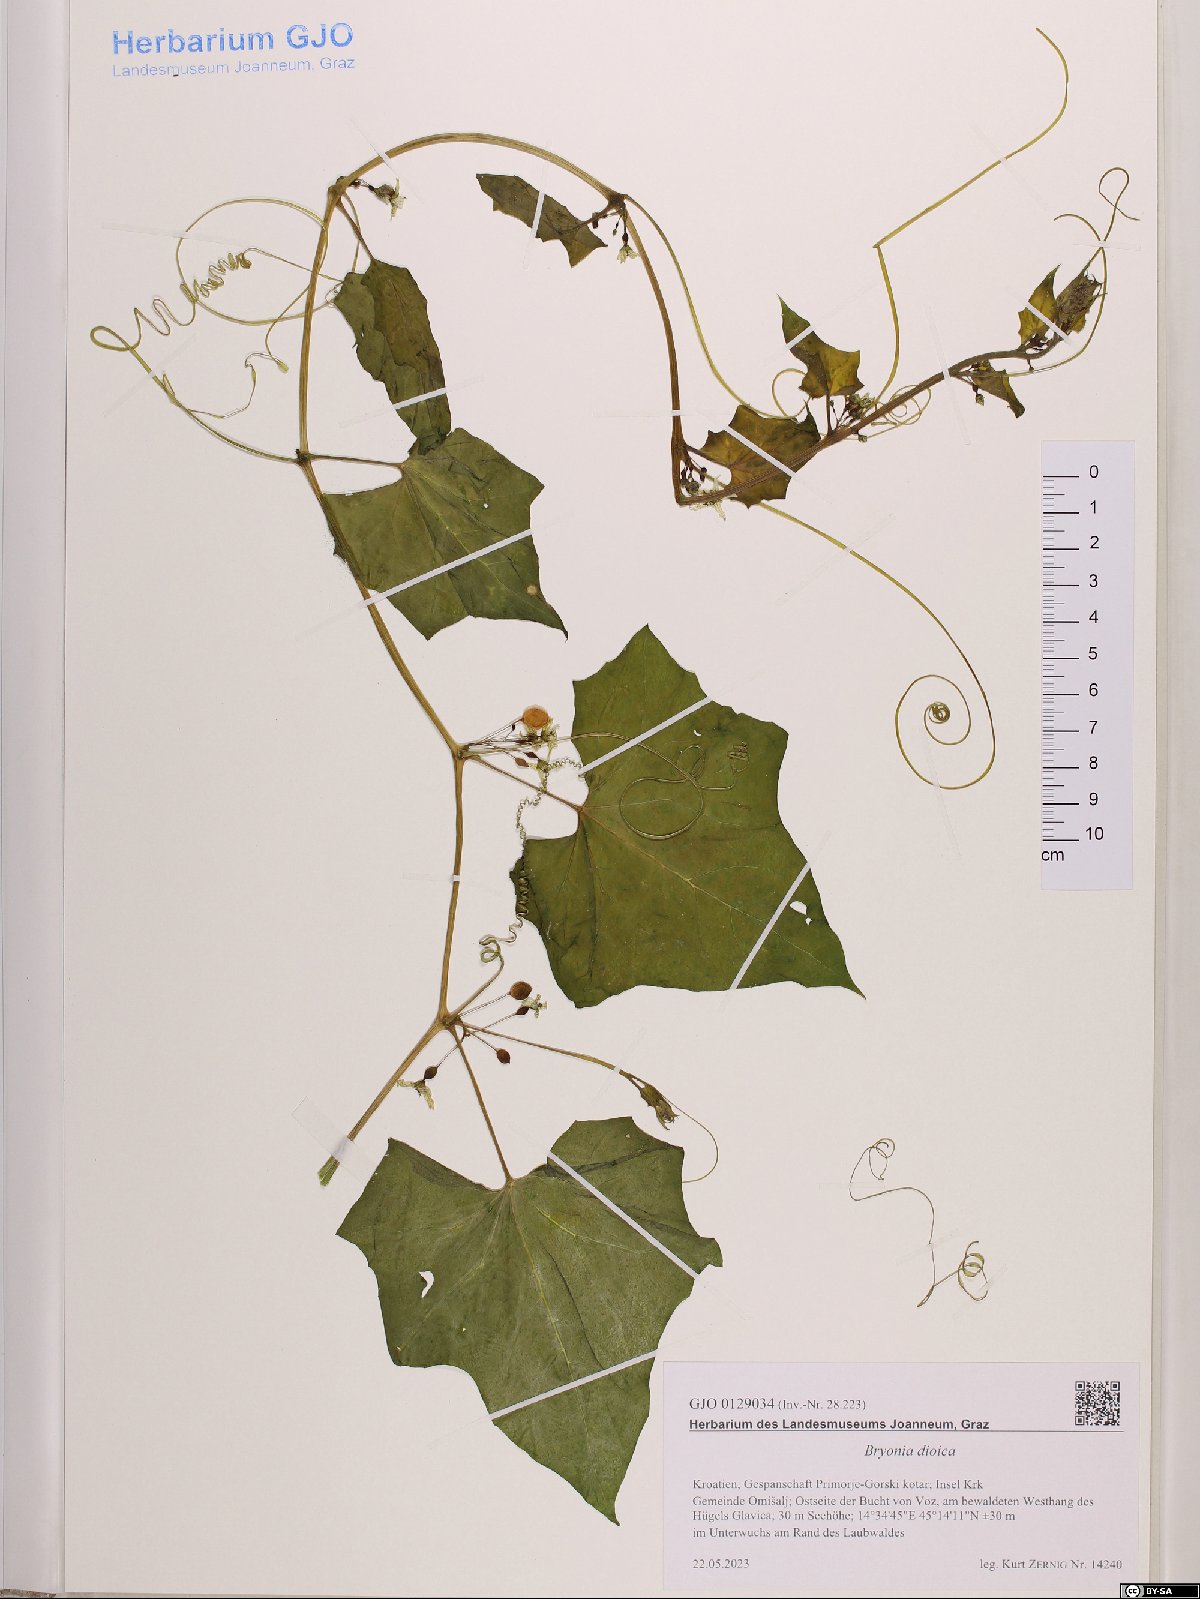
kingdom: Plantae
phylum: Tracheophyta
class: Magnoliopsida
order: Cucurbitales
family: Cucurbitaceae
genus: Bryonia
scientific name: Bryonia dioica
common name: White bryony
